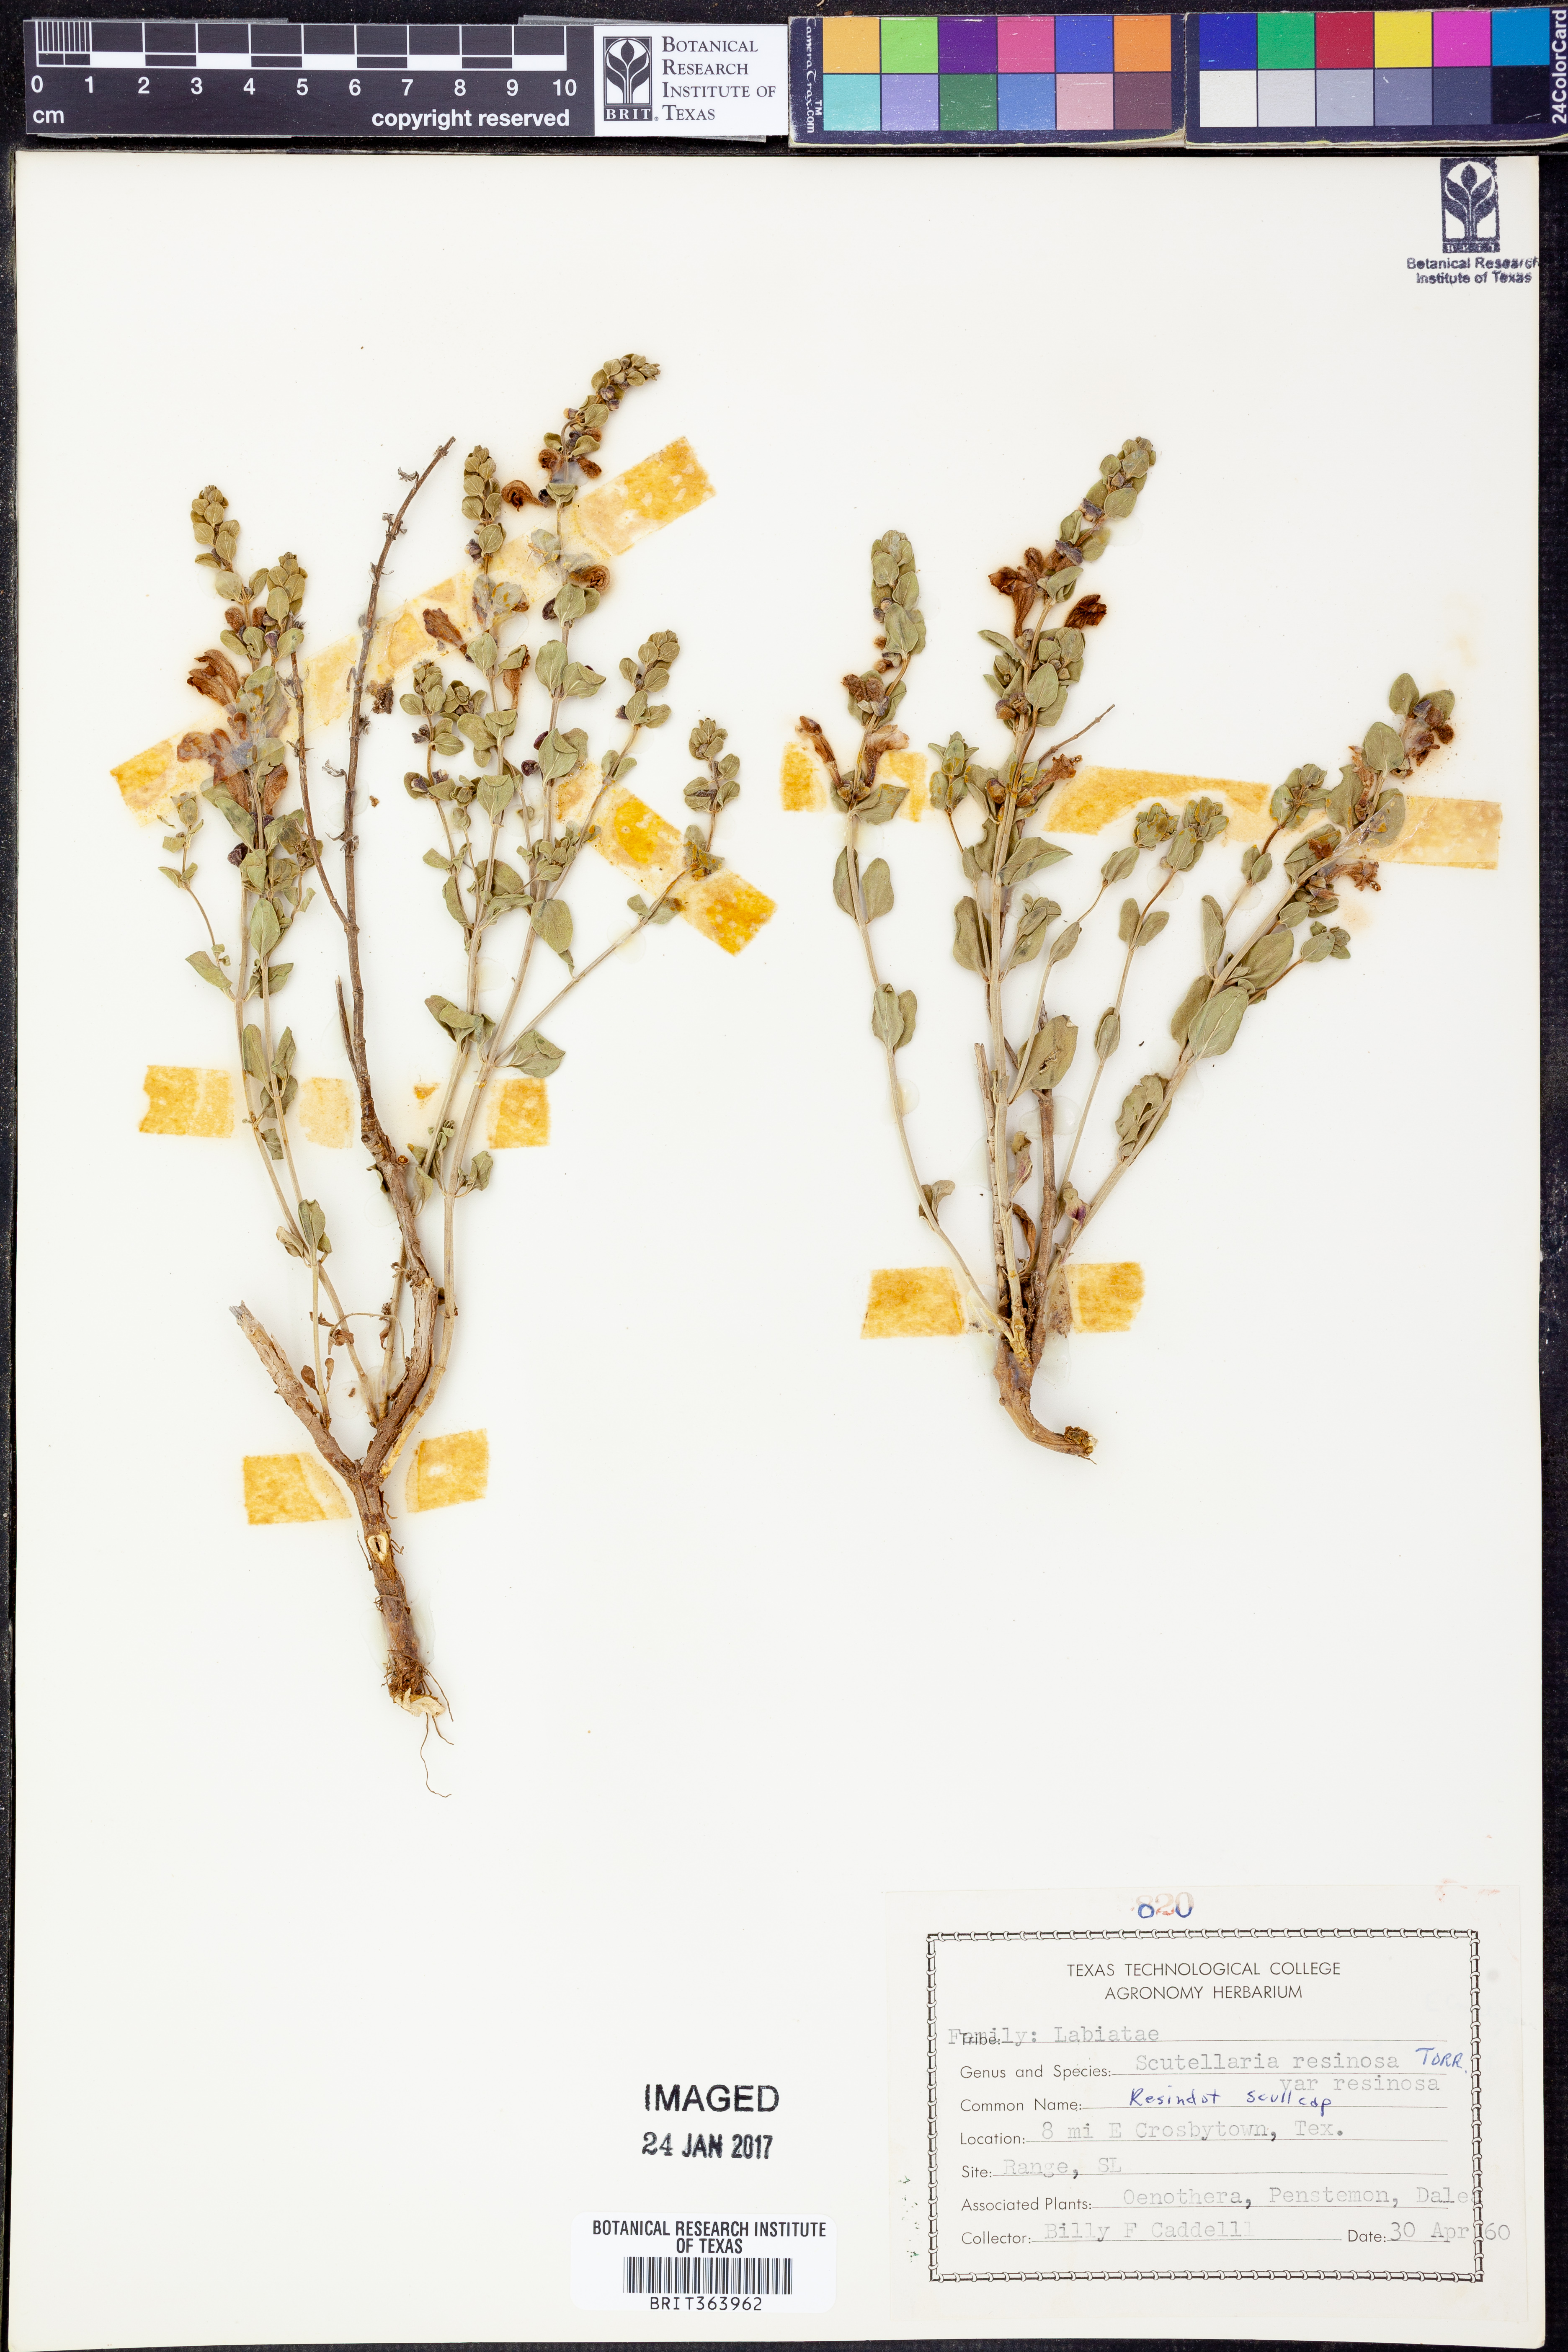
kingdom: Plantae
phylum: Tracheophyta
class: Magnoliopsida
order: Lamiales
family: Lamiaceae
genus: Scutellaria
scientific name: Scutellaria resinosa
